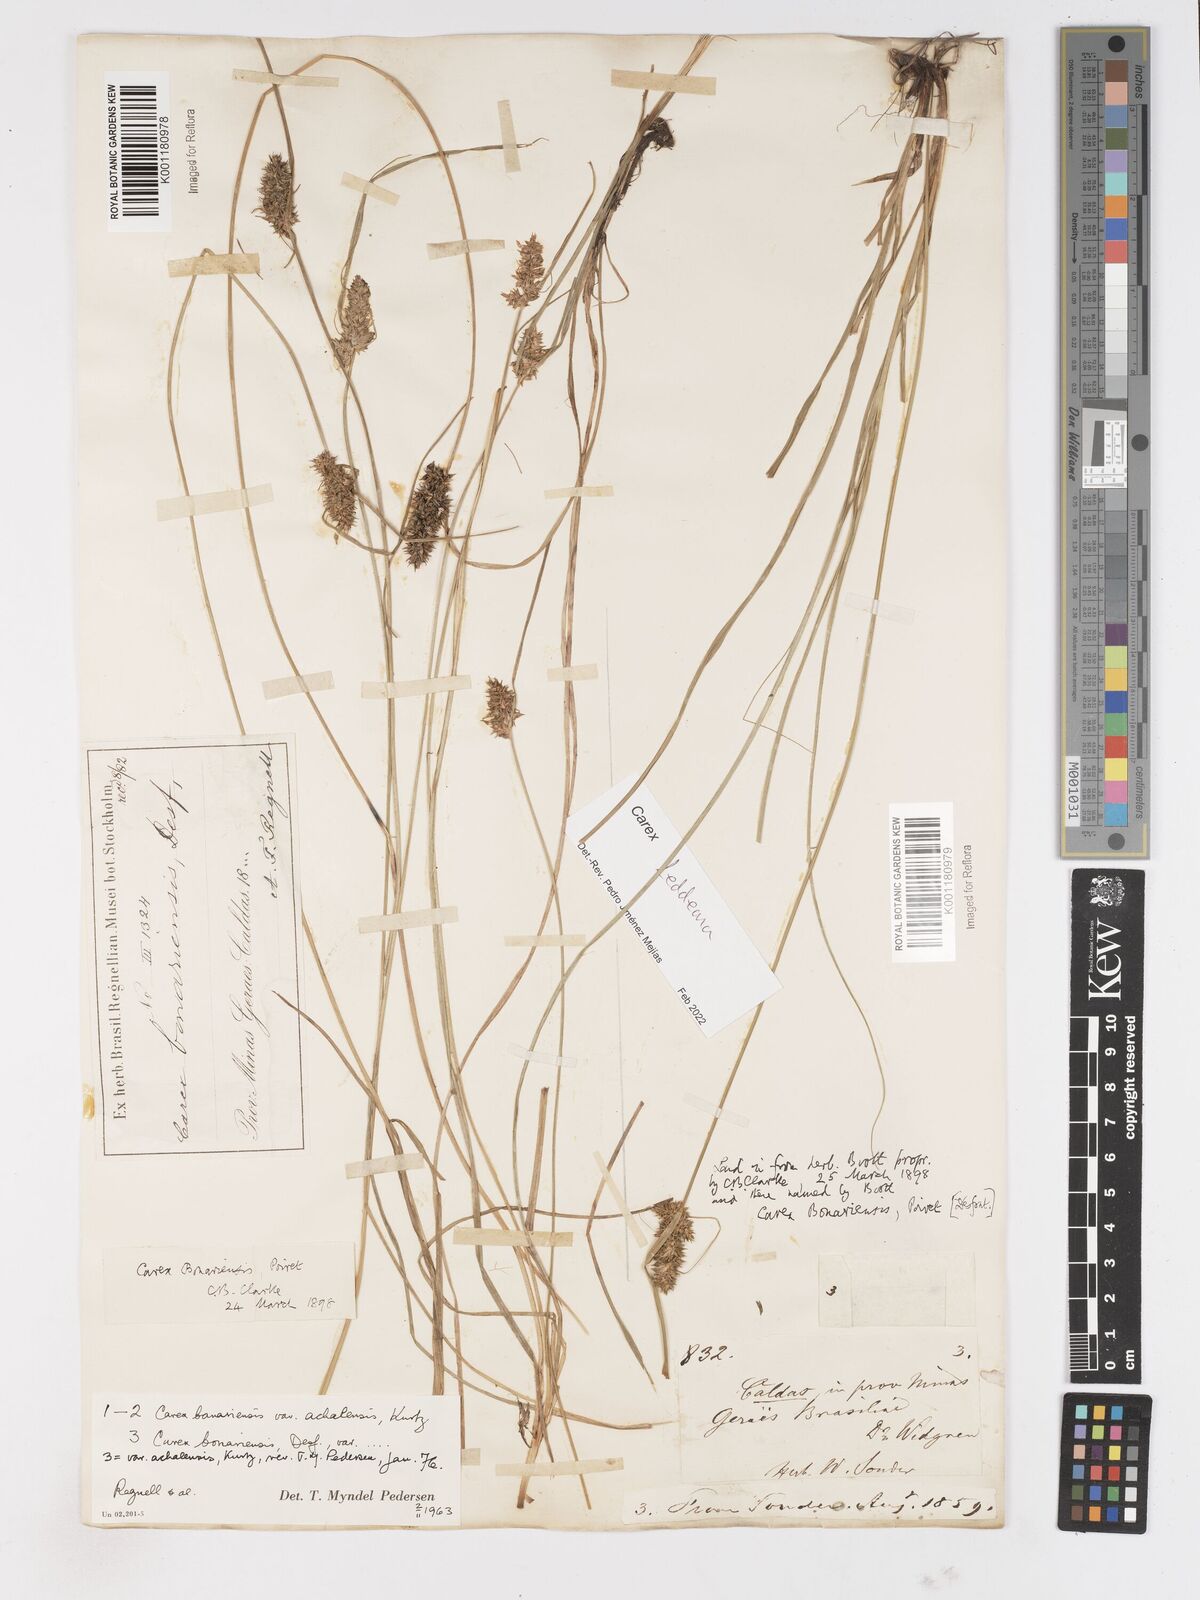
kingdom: Plantae
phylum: Tracheophyta
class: Liliopsida
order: Poales
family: Cyperaceae
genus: Carex
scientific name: Carex bonariensis
